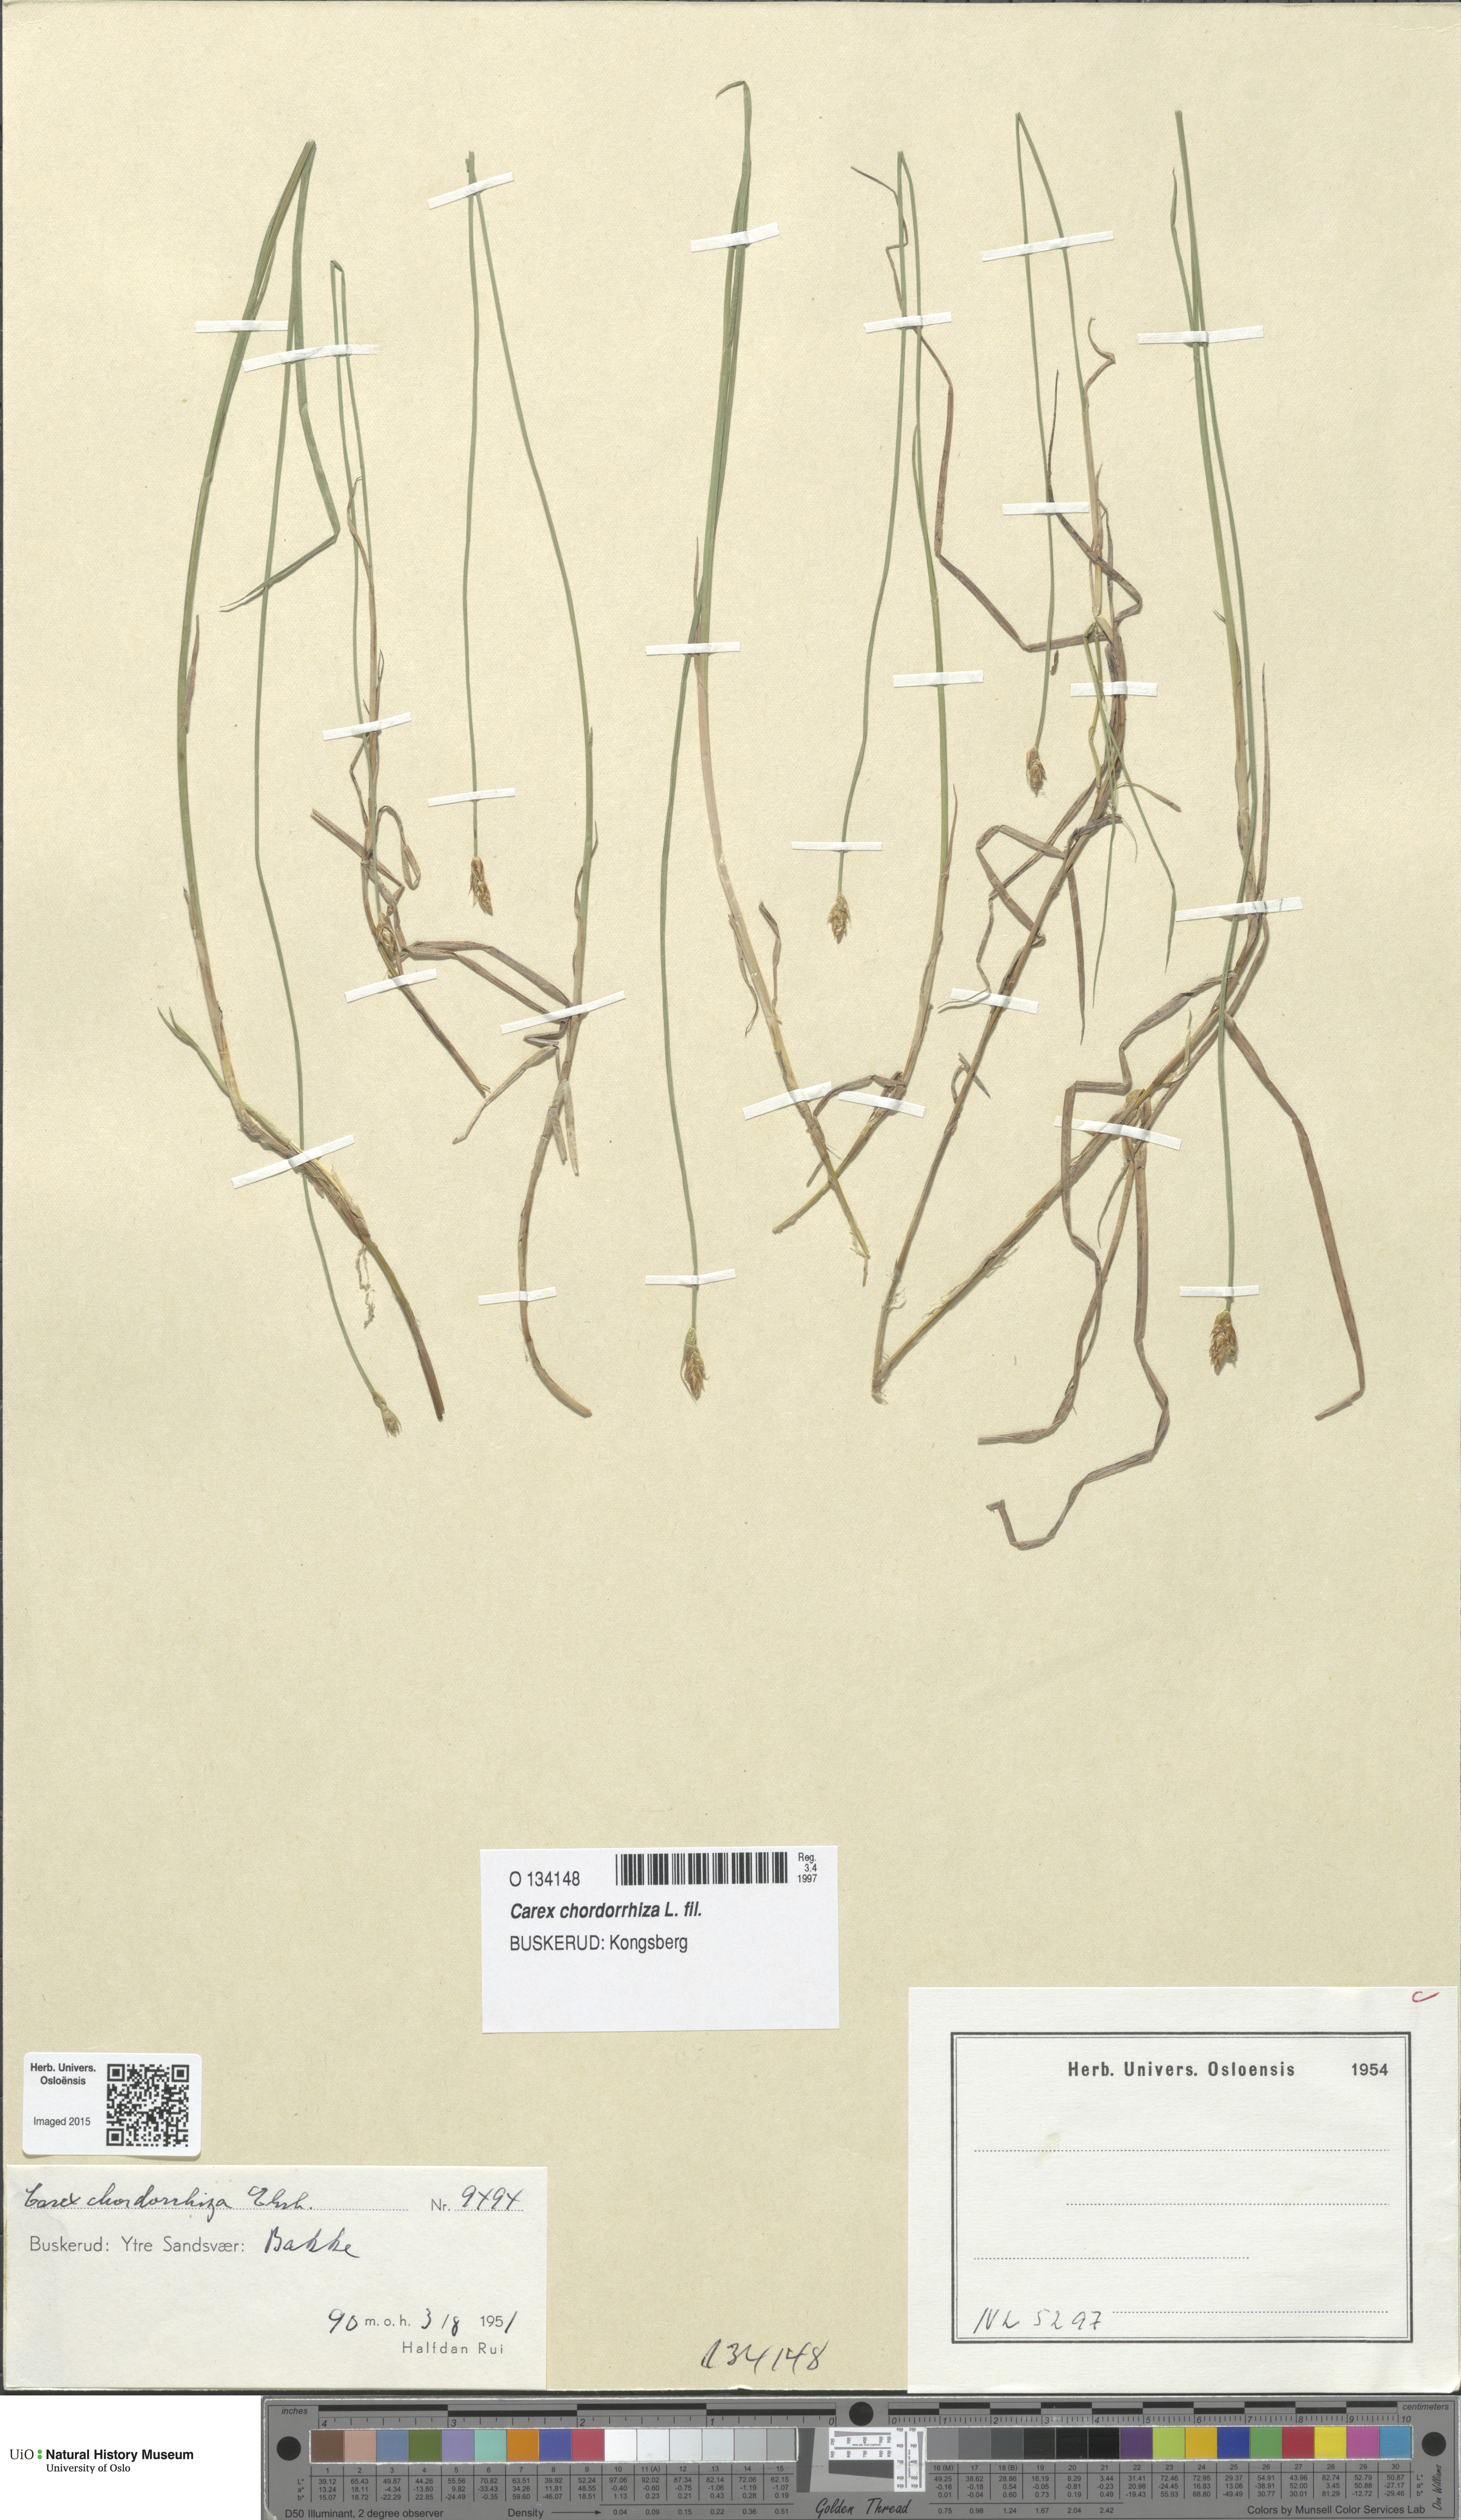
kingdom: Plantae
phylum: Tracheophyta
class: Liliopsida
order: Poales
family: Cyperaceae
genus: Carex
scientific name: Carex chordorrhiza
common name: String sedge
